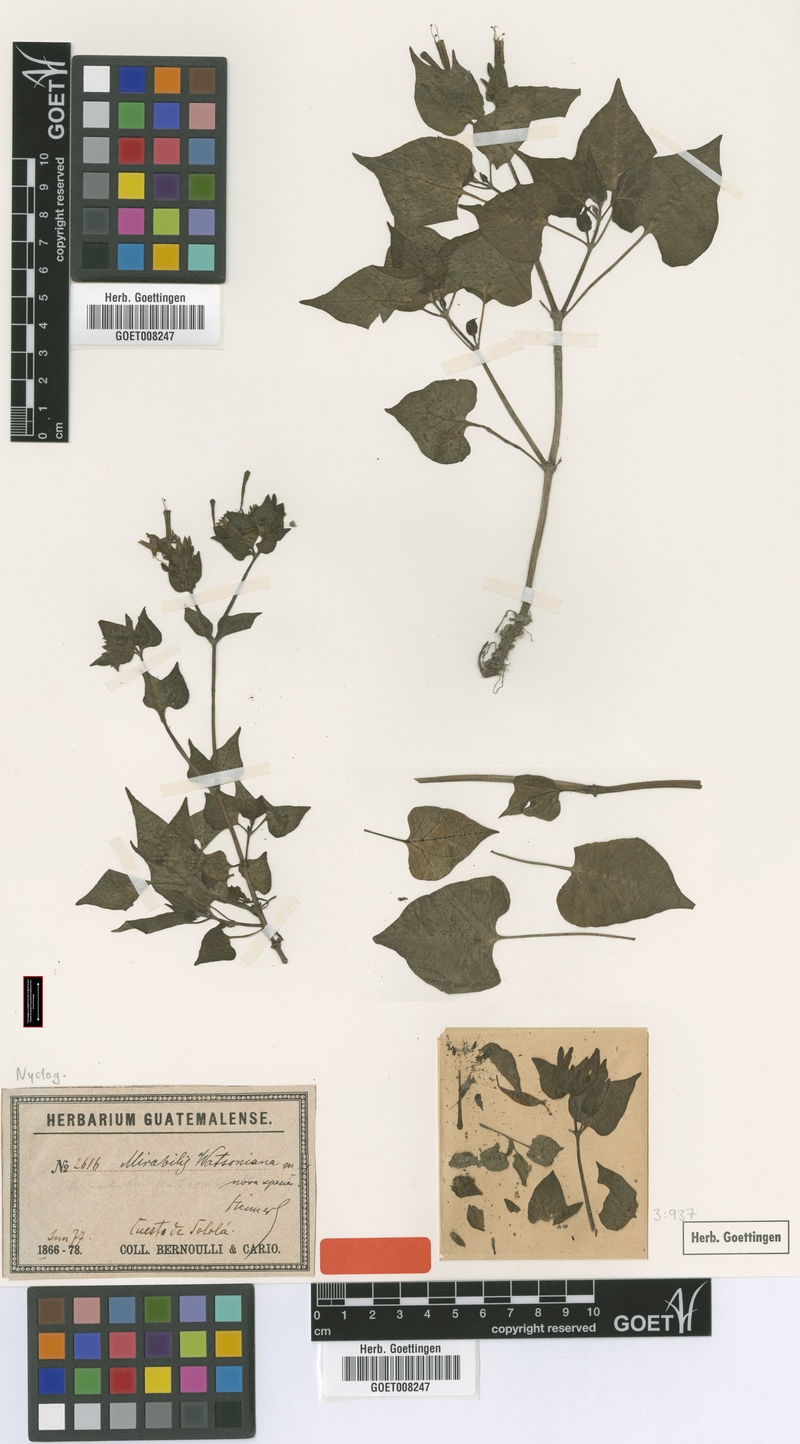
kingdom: Plantae
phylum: Tracheophyta
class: Magnoliopsida
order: Caryophyllales
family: Nyctaginaceae
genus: Mirabilis
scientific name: Mirabilis watsoniana
